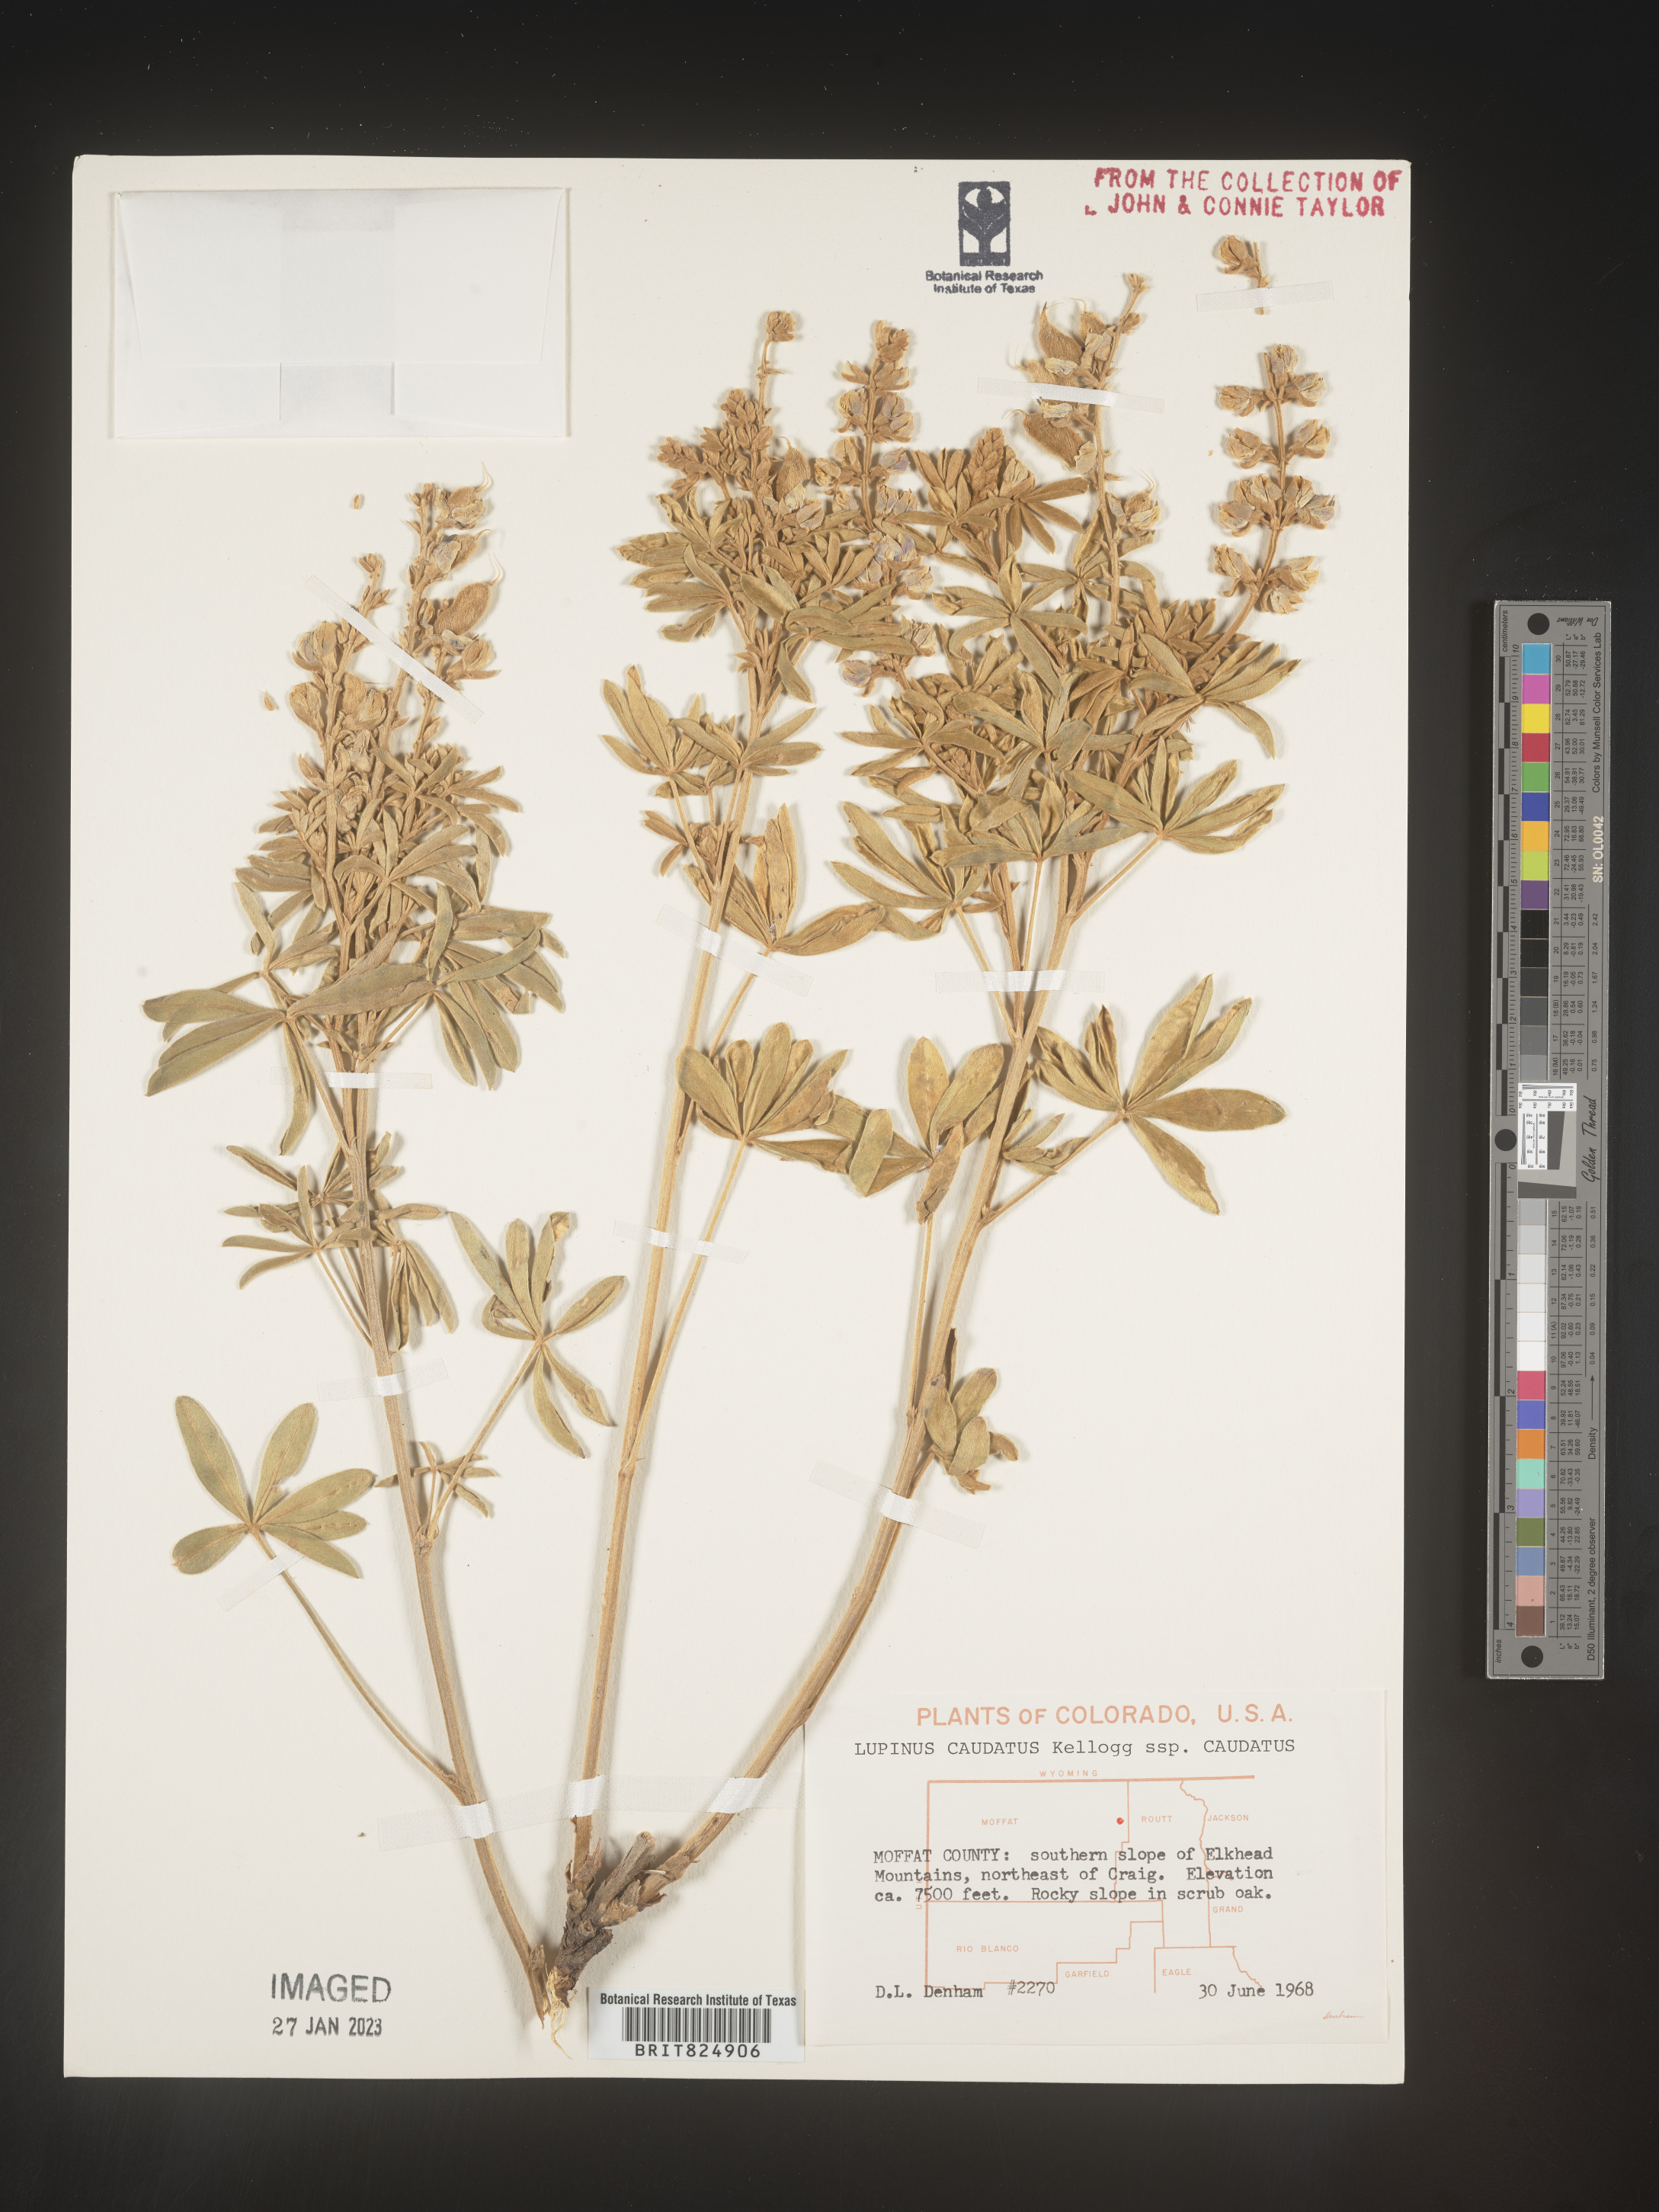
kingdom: Plantae
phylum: Tracheophyta
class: Magnoliopsida
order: Fabales
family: Fabaceae
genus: Lupinus
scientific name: Lupinus caudatus
